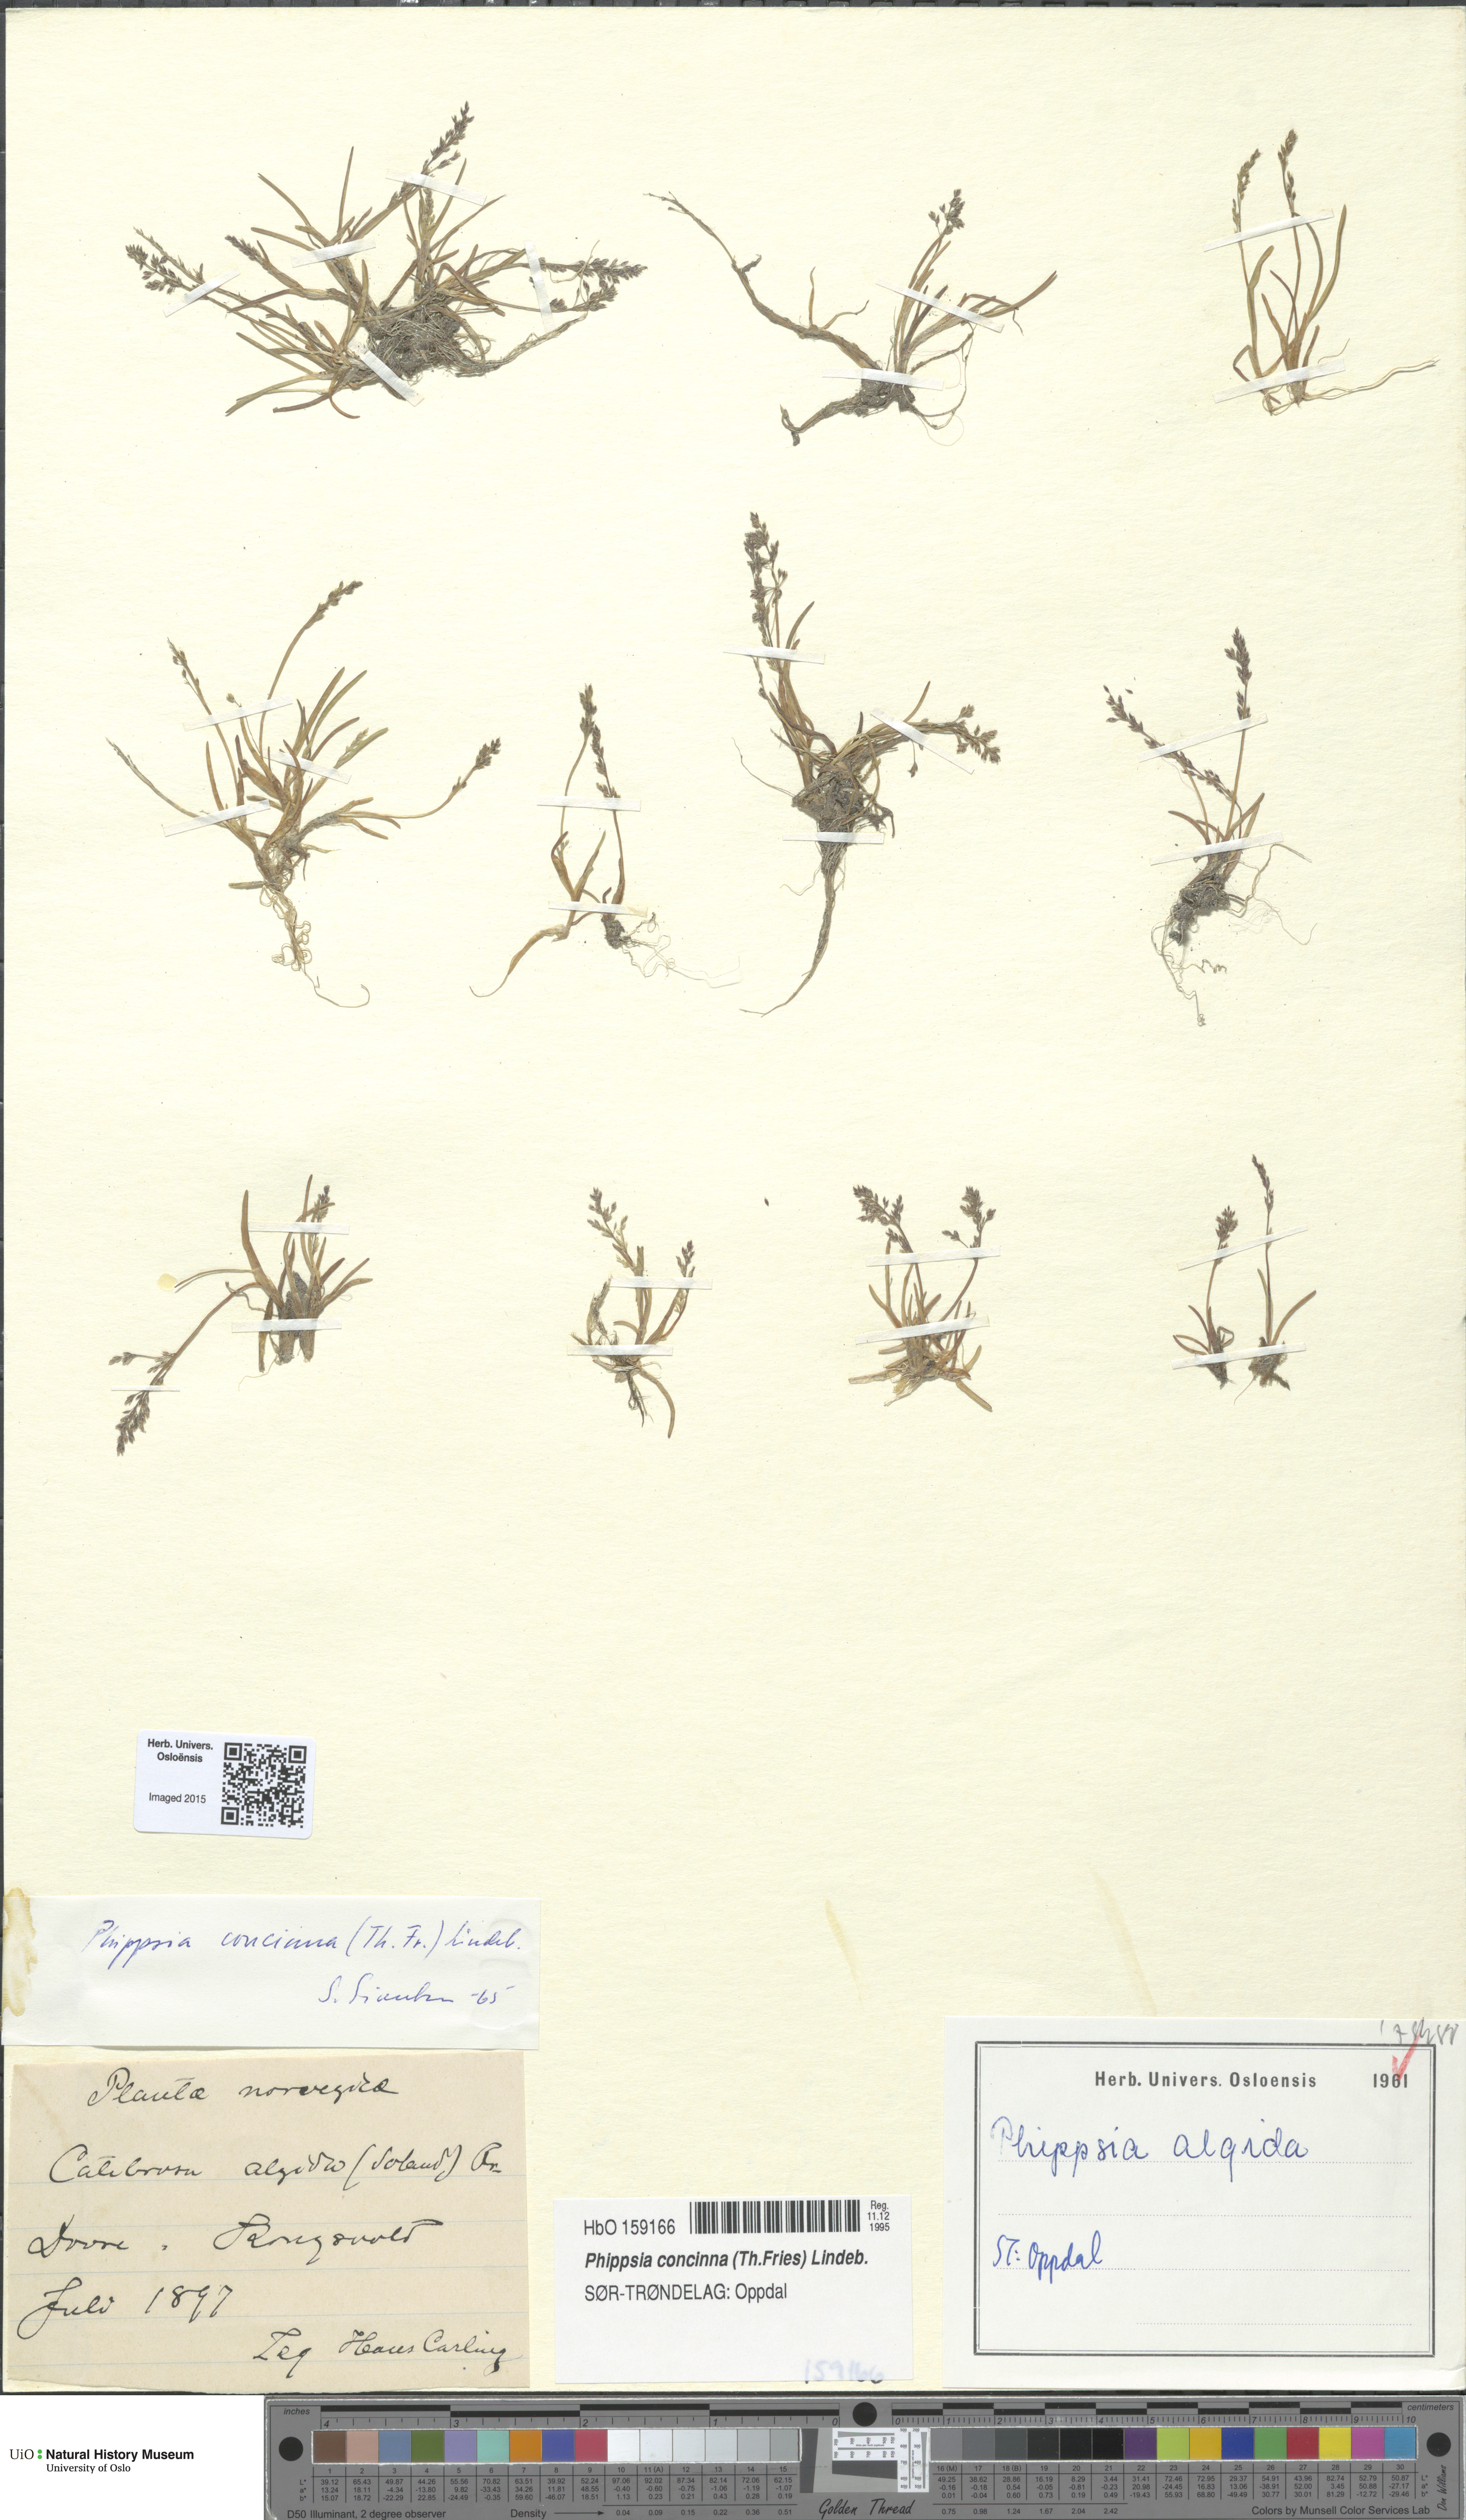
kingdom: Plantae
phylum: Tracheophyta
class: Liliopsida
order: Poales
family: Poaceae
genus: Phippsia
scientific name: Phippsia concinna
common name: Snowgrass
